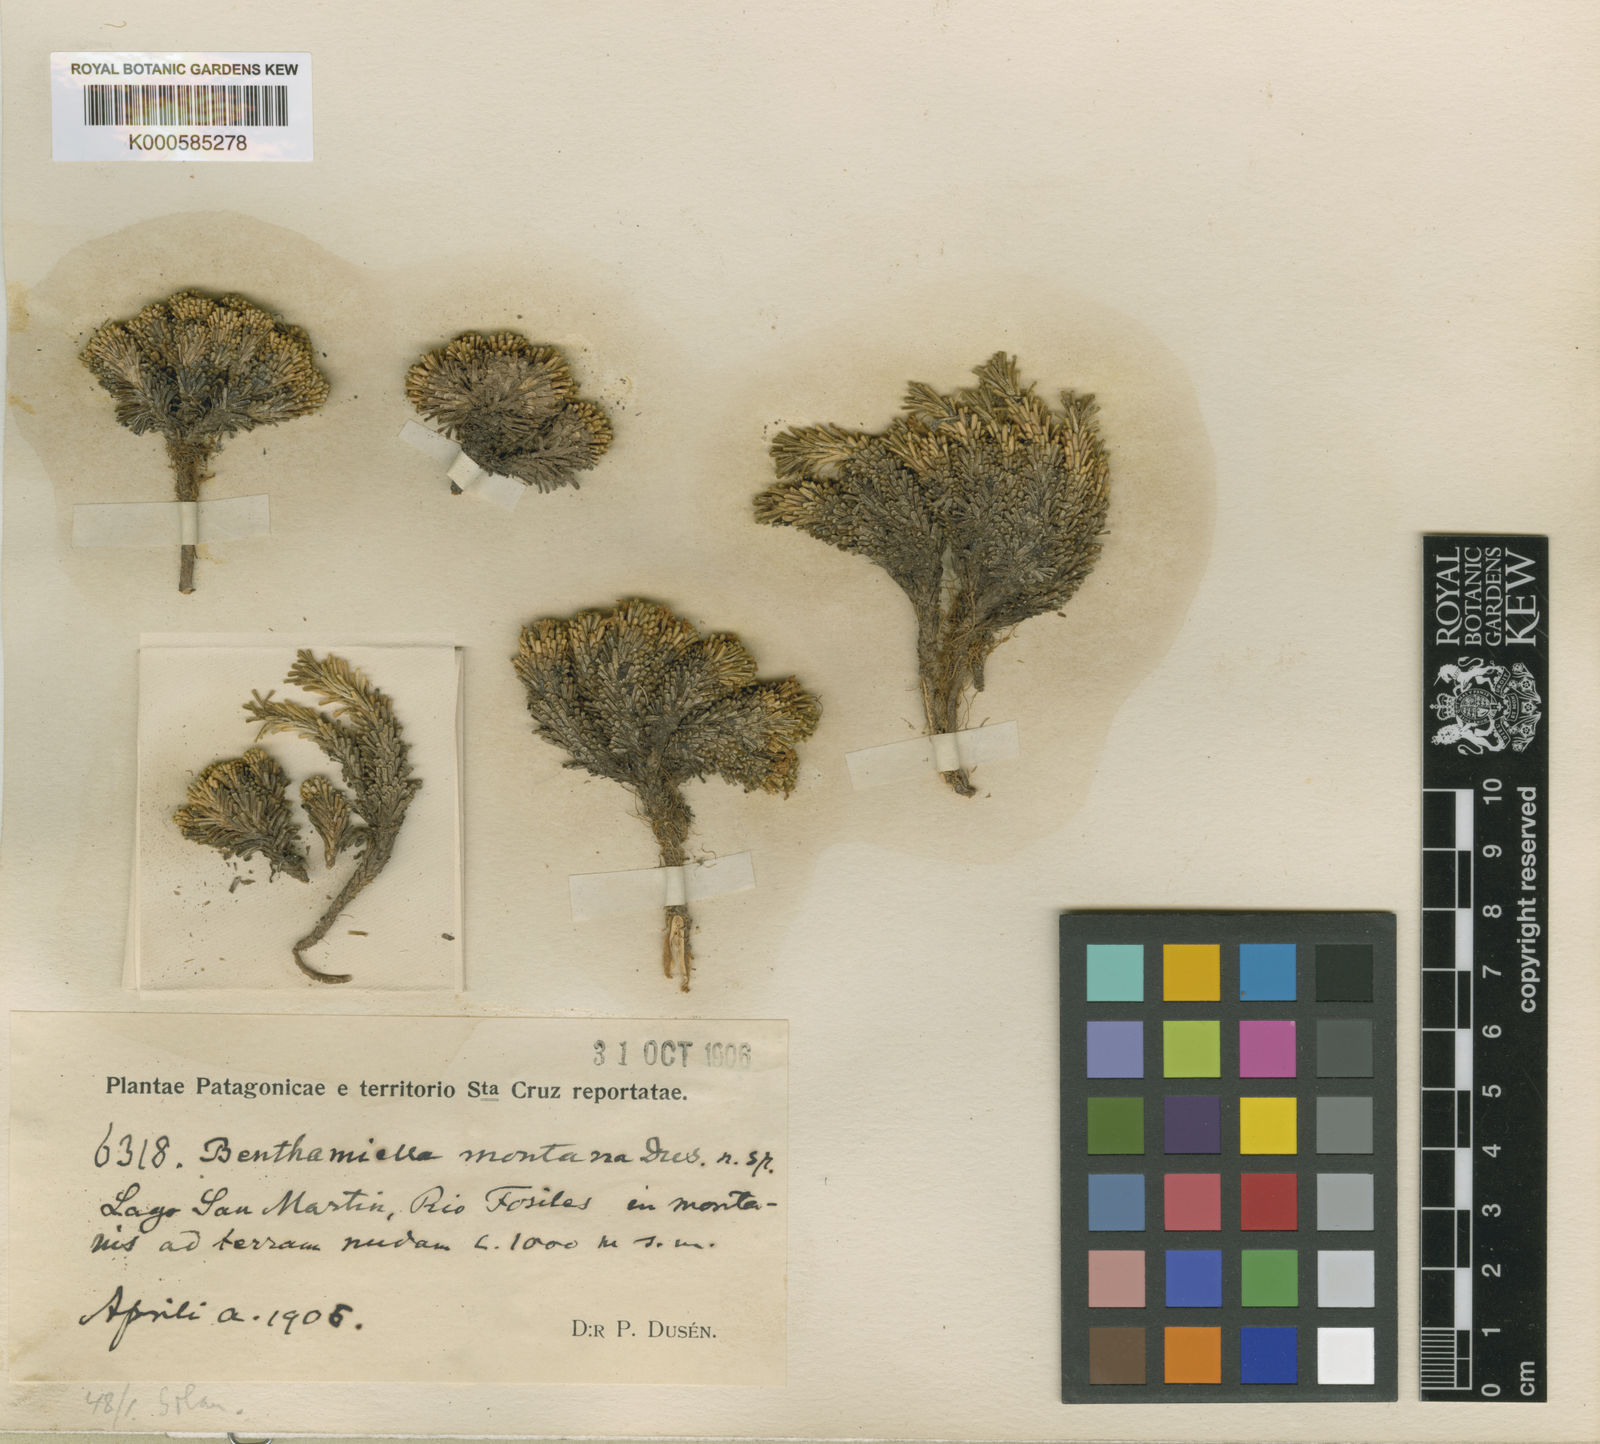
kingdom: Plantae
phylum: Tracheophyta
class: Magnoliopsida
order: Solanales
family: Solanaceae
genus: Benthamiella
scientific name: Benthamiella patagonica
